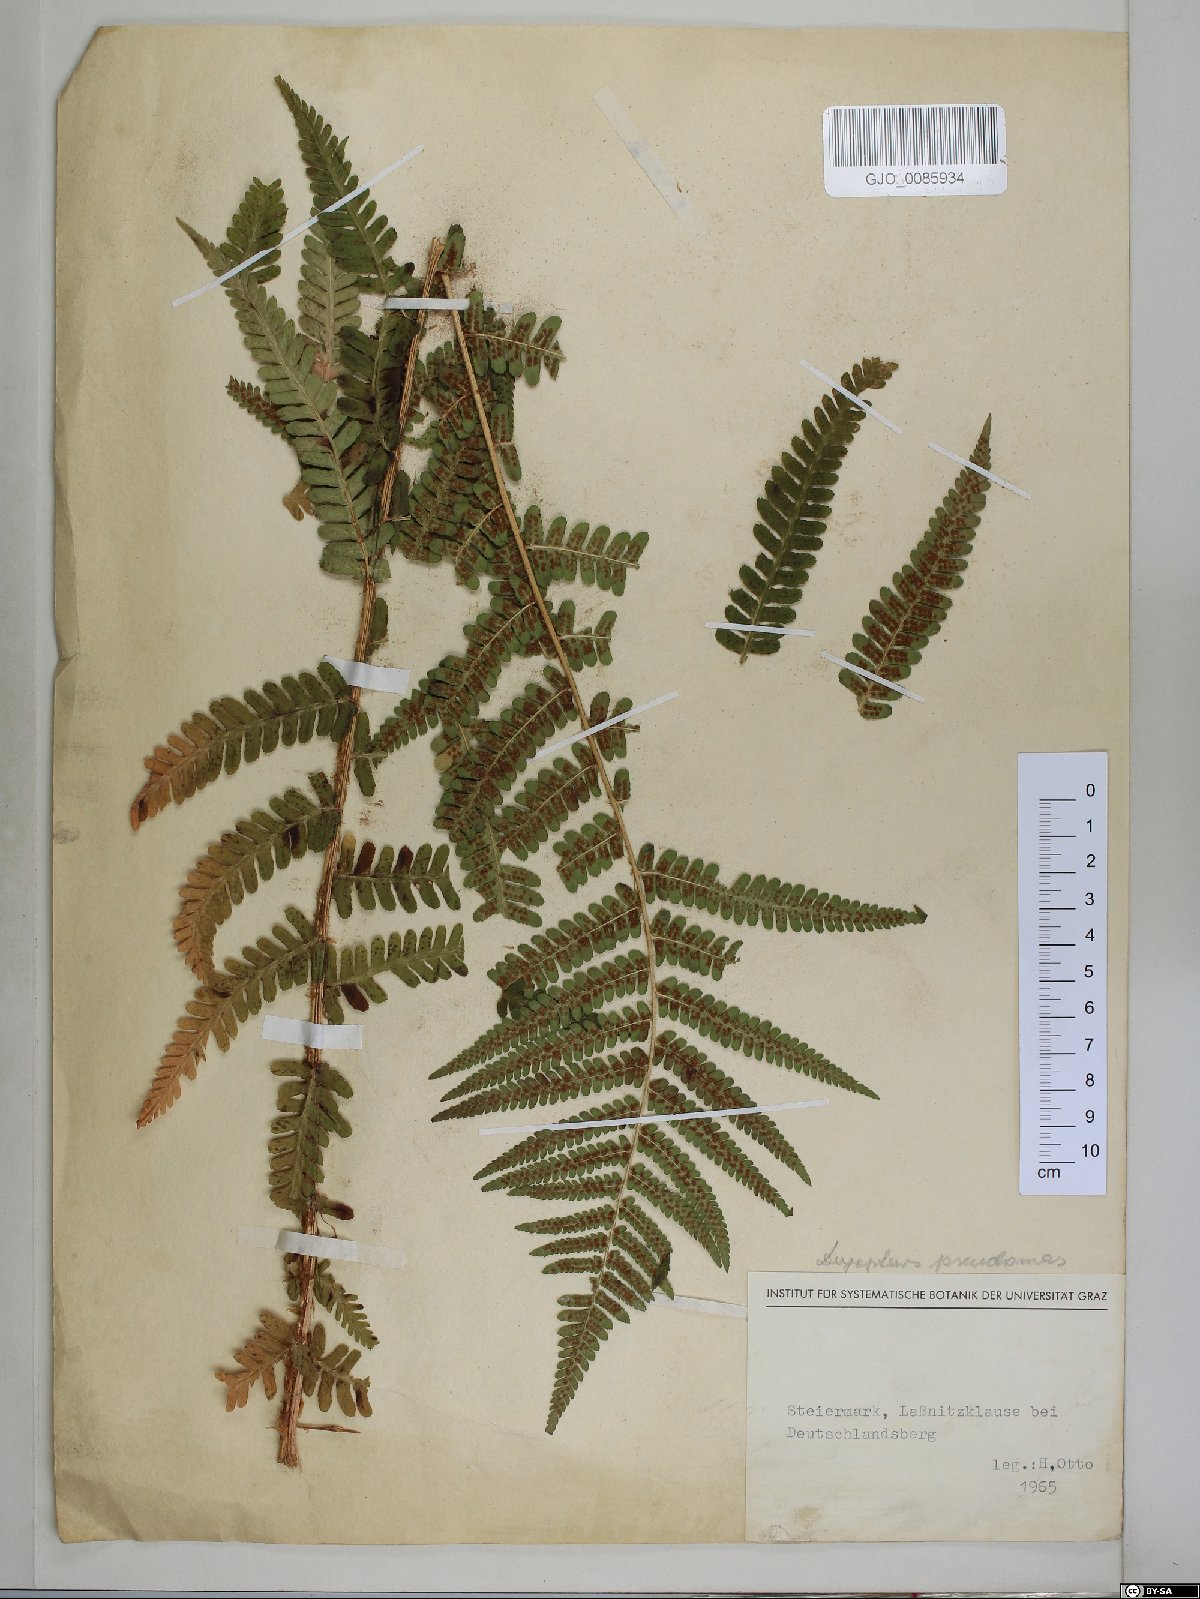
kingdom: Plantae
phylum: Tracheophyta
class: Polypodiopsida
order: Polypodiales
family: Dryopteridaceae
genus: Dryopteris
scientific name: Dryopteris affinis
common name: Scaly male fern
